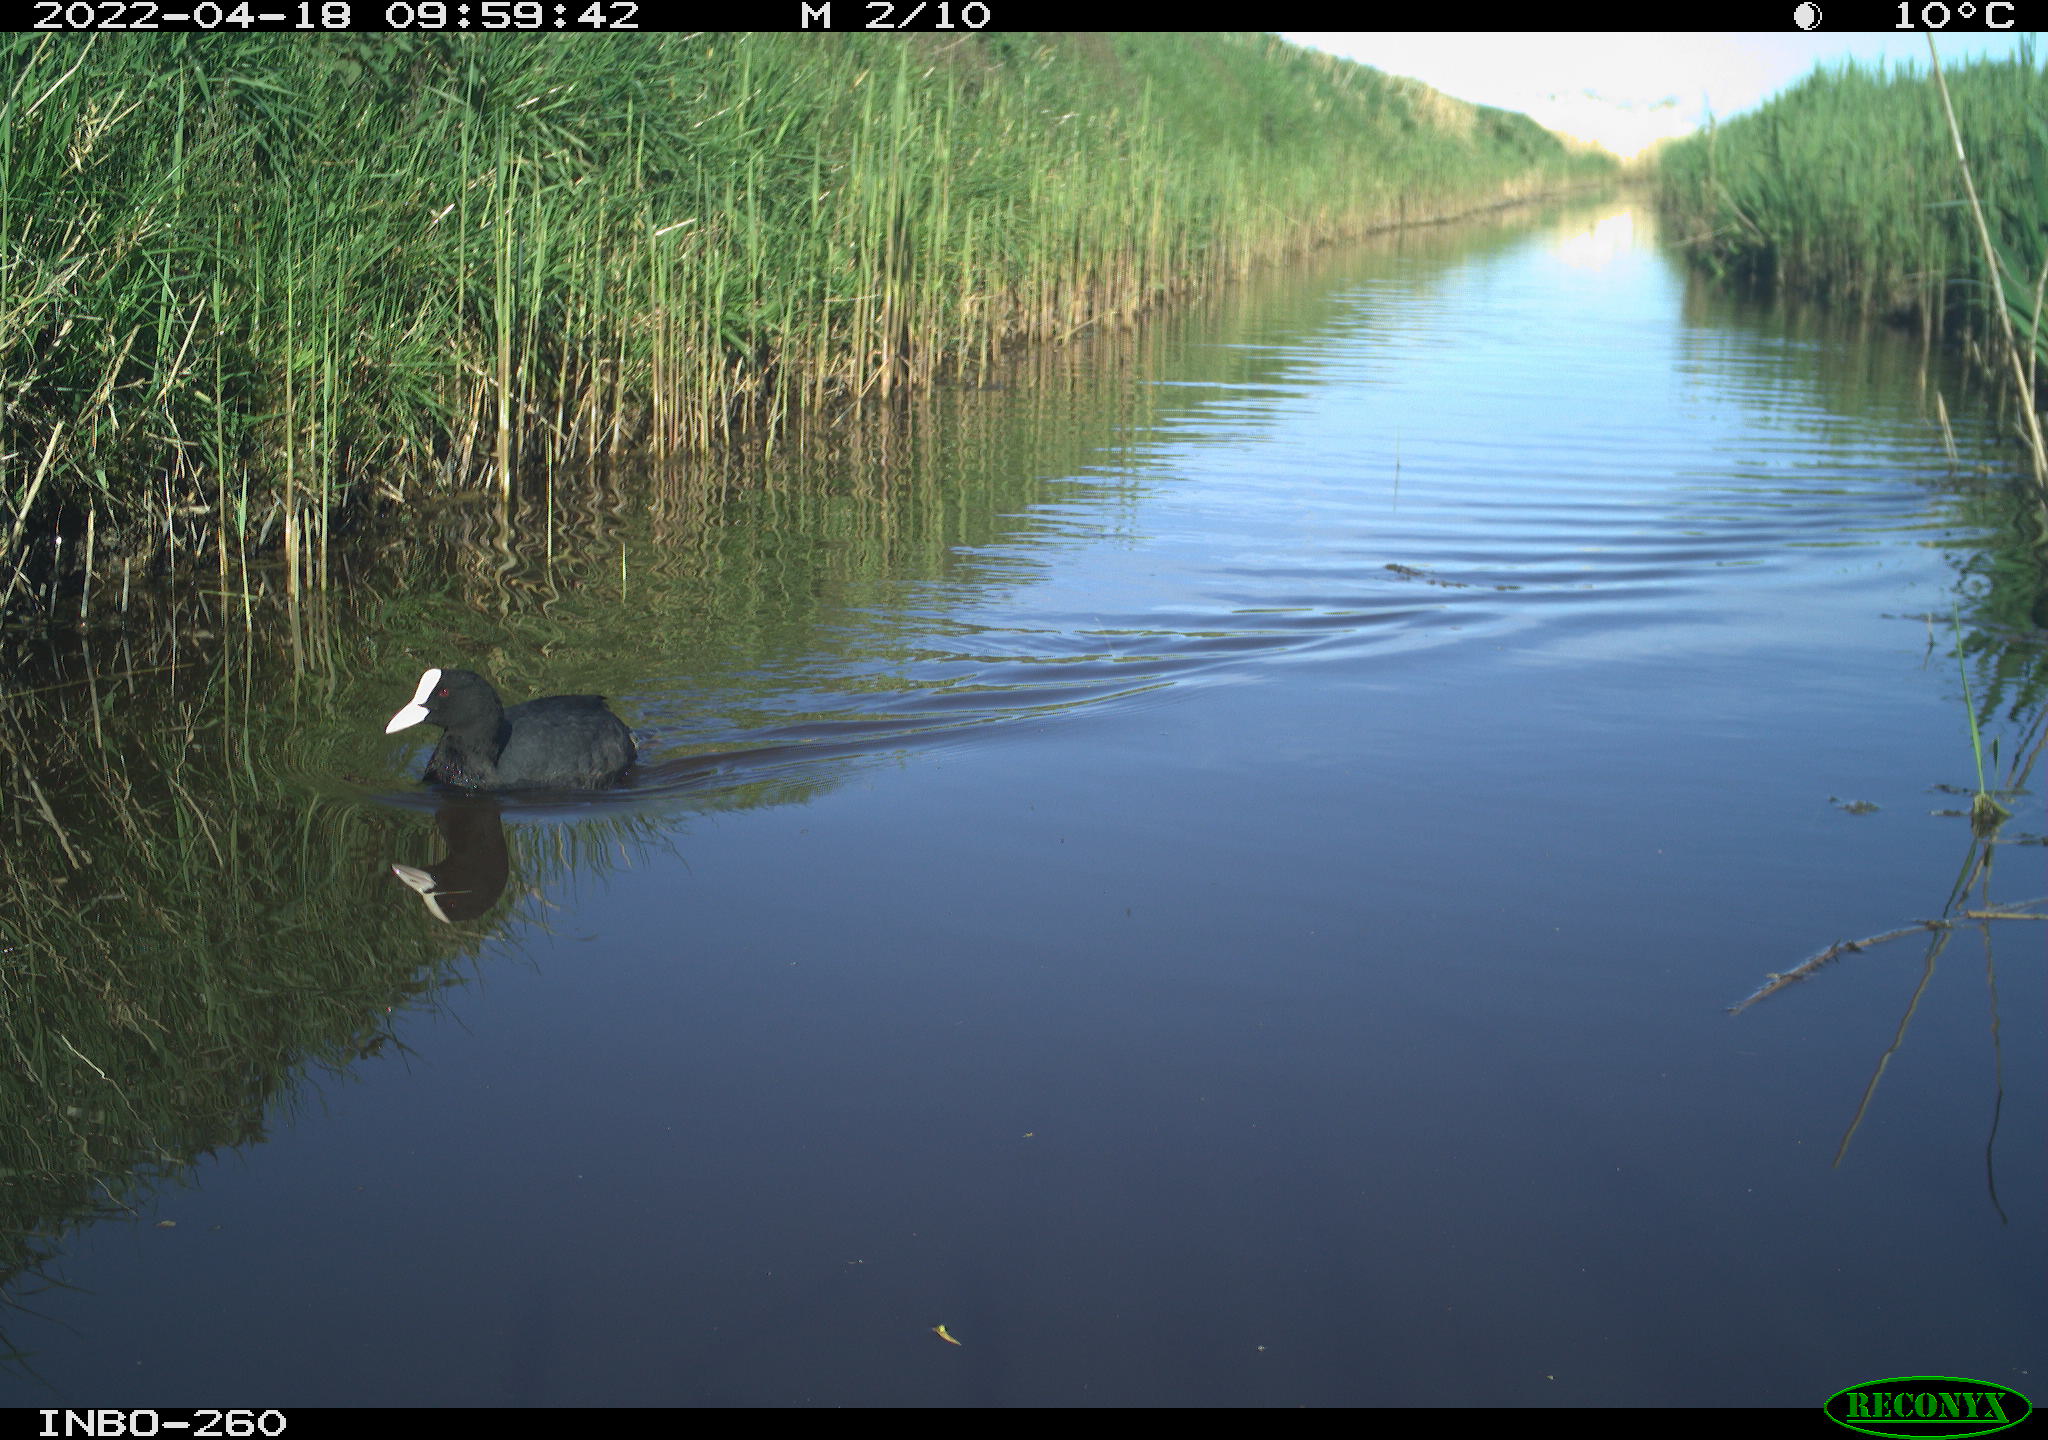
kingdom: Animalia
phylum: Chordata
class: Aves
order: Gruiformes
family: Rallidae
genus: Fulica
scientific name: Fulica atra
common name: Eurasian coot
